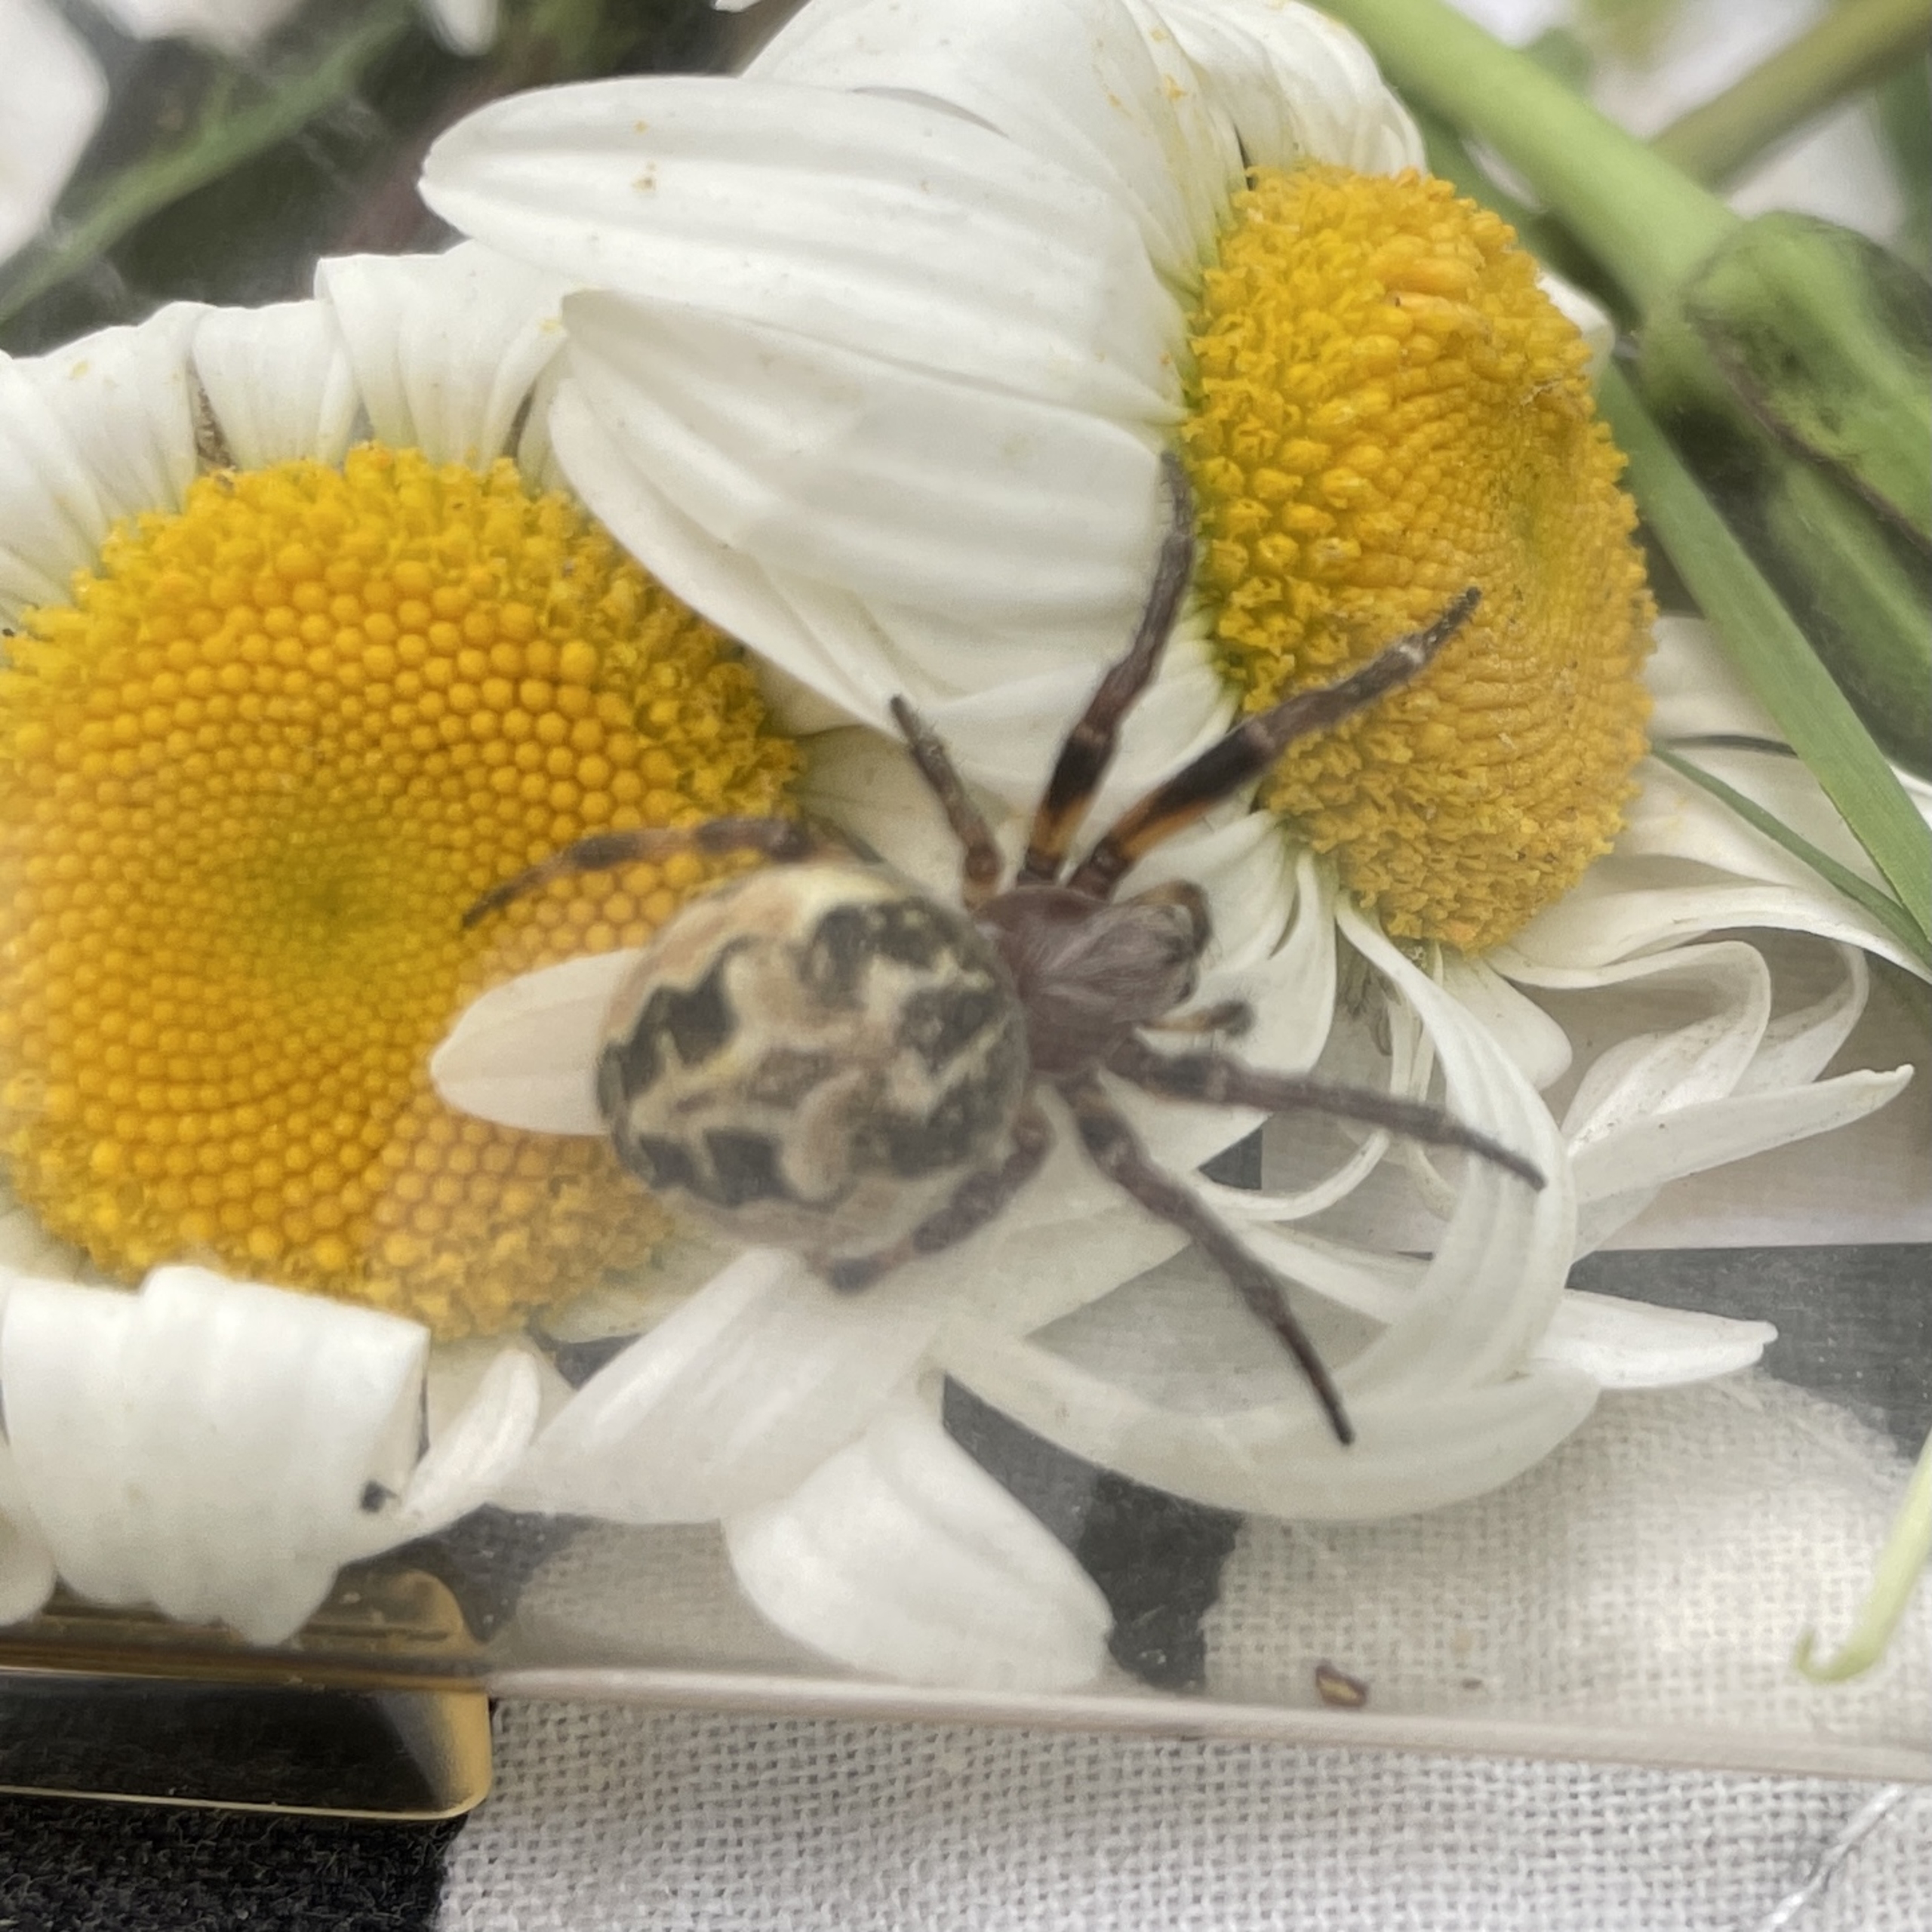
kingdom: Animalia
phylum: Arthropoda
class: Arachnida
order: Araneae
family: Araneidae
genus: Larinioides
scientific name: Larinioides cornutus
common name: Sivhjulspinder
